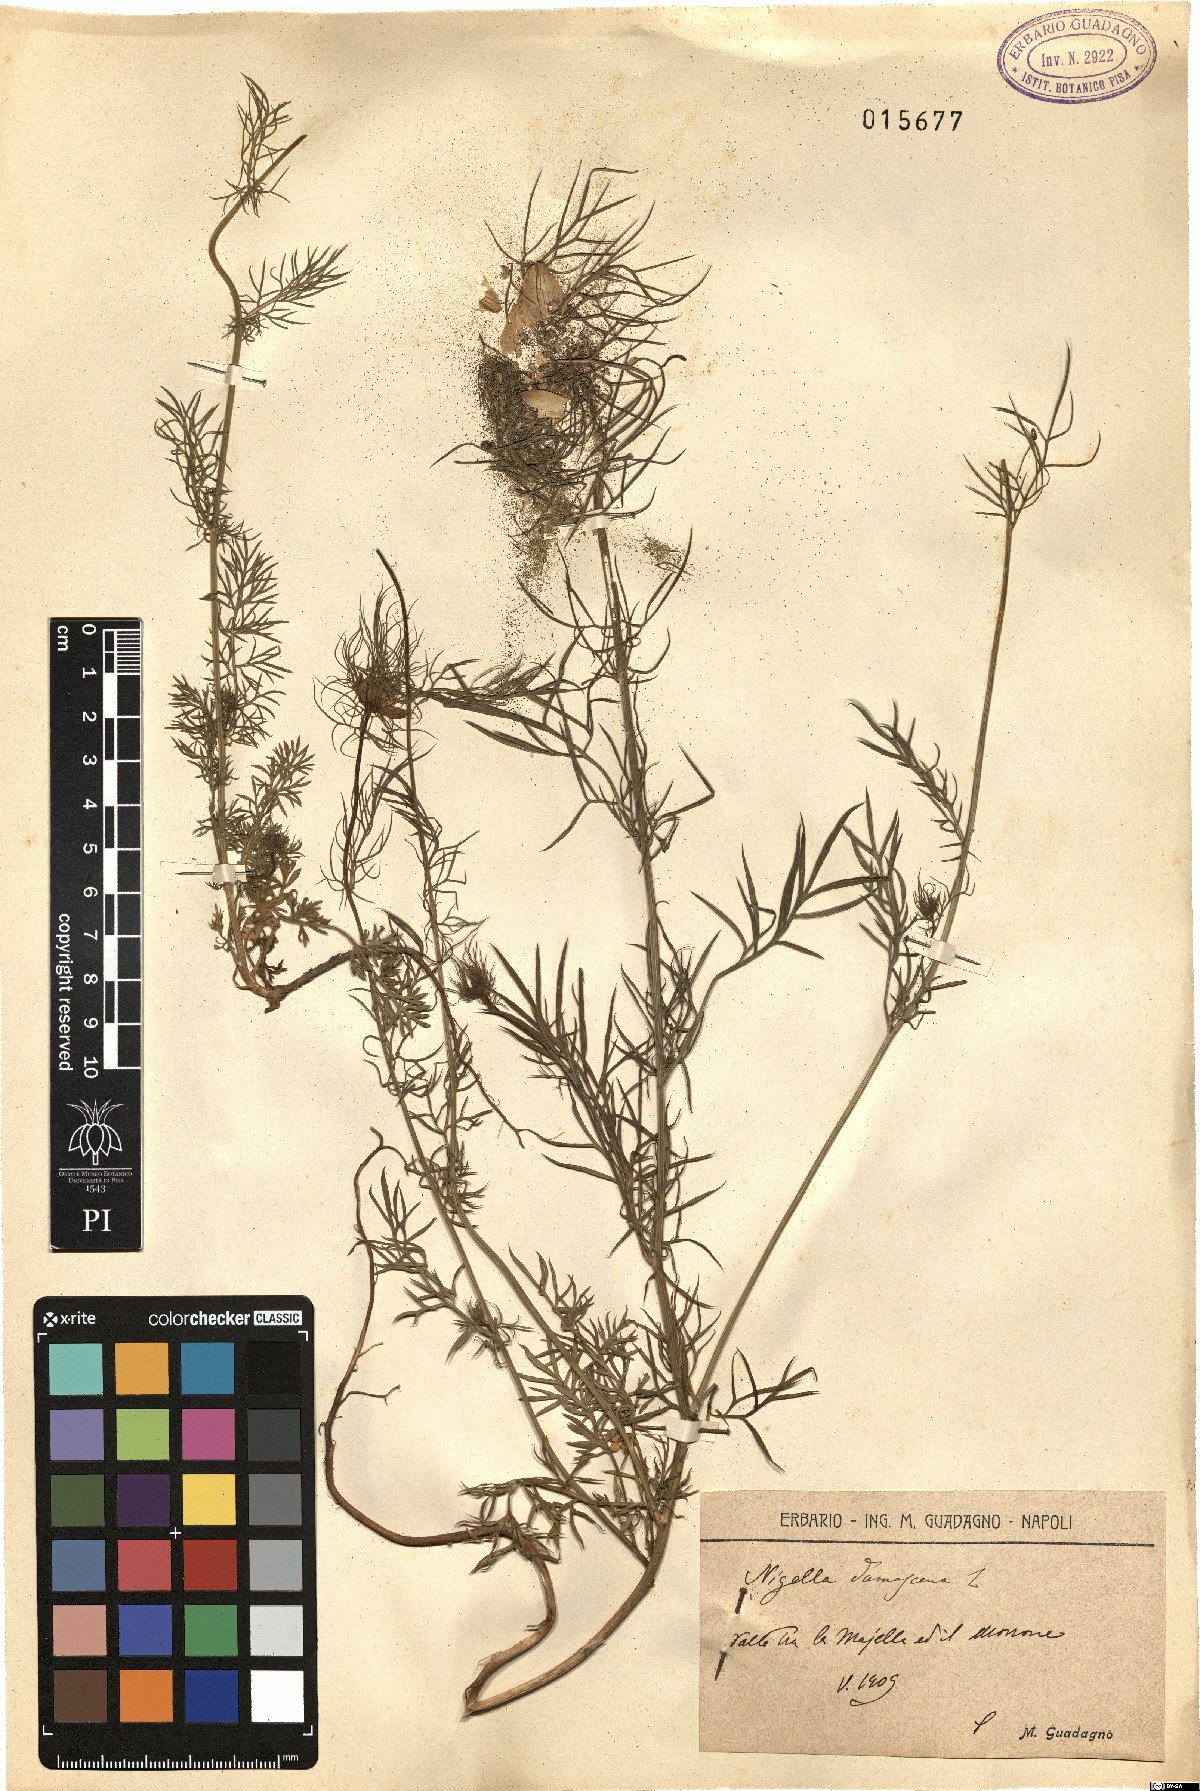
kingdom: Plantae
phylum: Tracheophyta
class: Magnoliopsida
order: Ranunculales
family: Ranunculaceae
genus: Nigella
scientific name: Nigella damascena
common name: Love-in-a-mist
